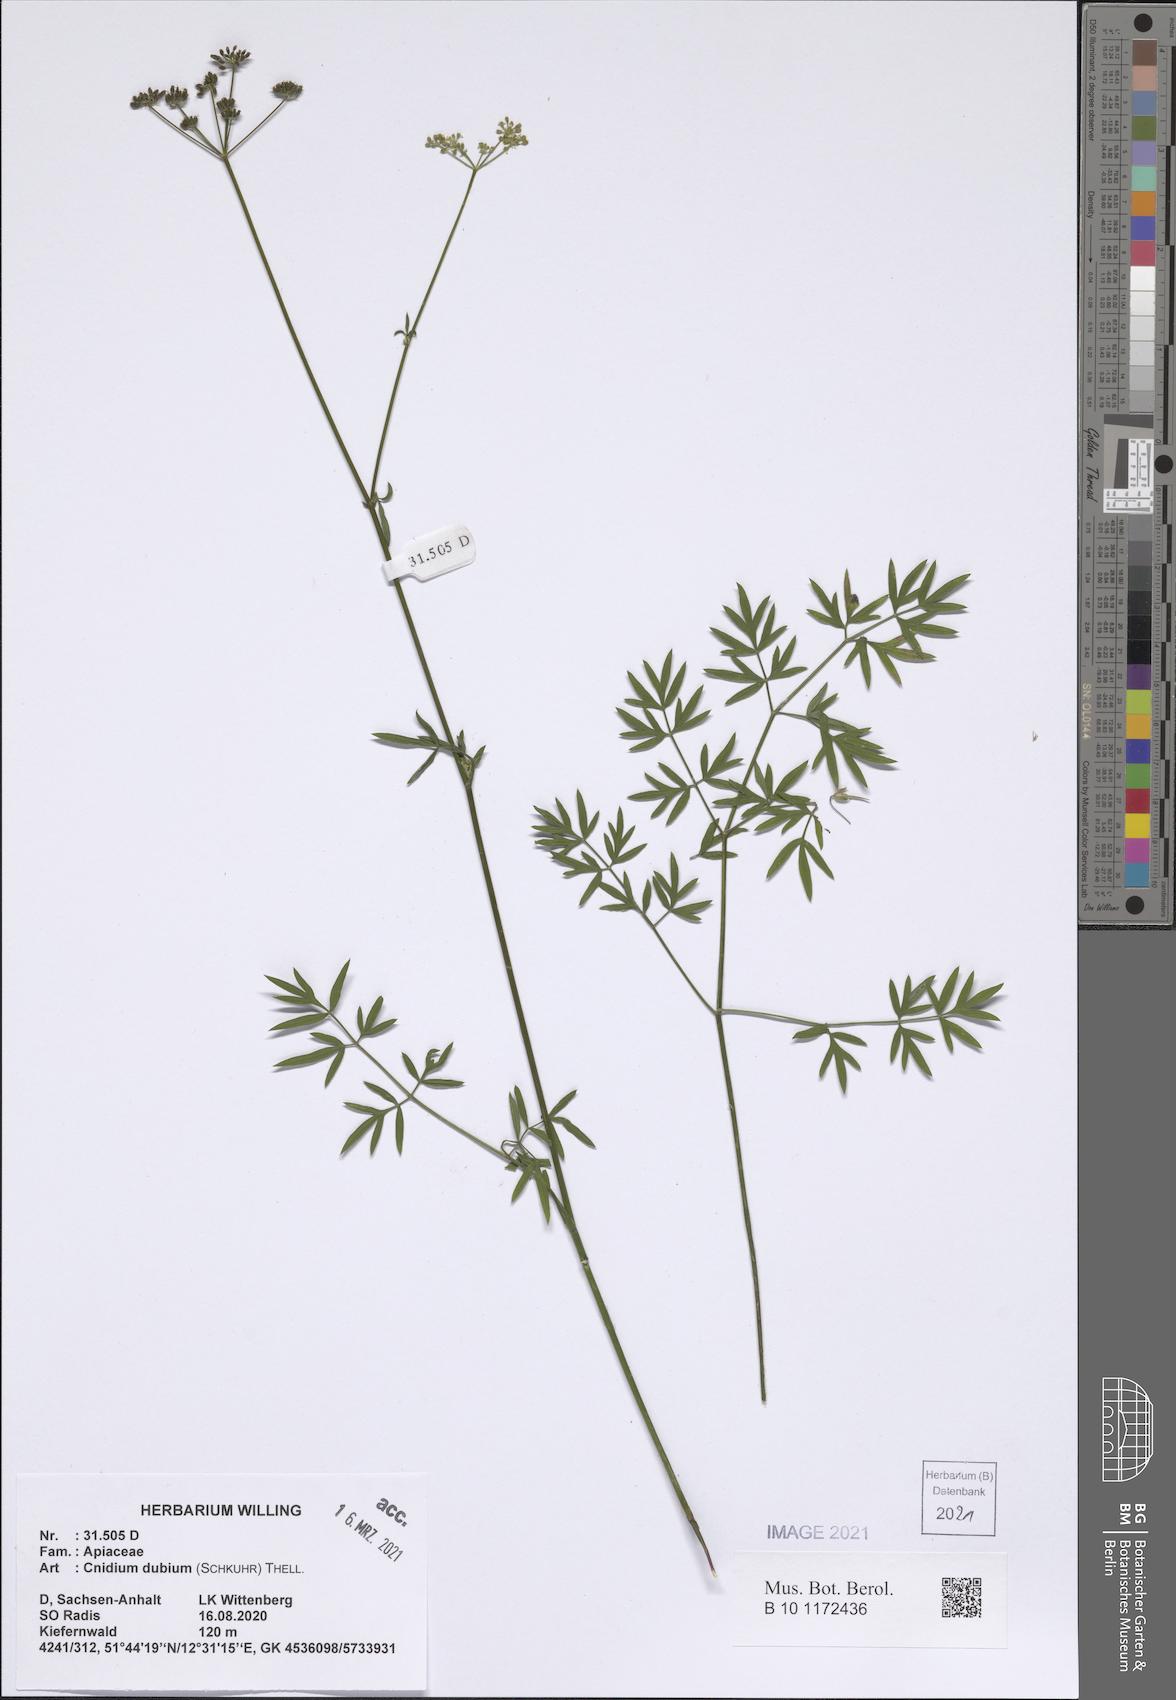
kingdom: Plantae
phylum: Tracheophyta
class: Magnoliopsida
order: Apiales
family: Apiaceae
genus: Kadenia
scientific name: Kadenia dubia
